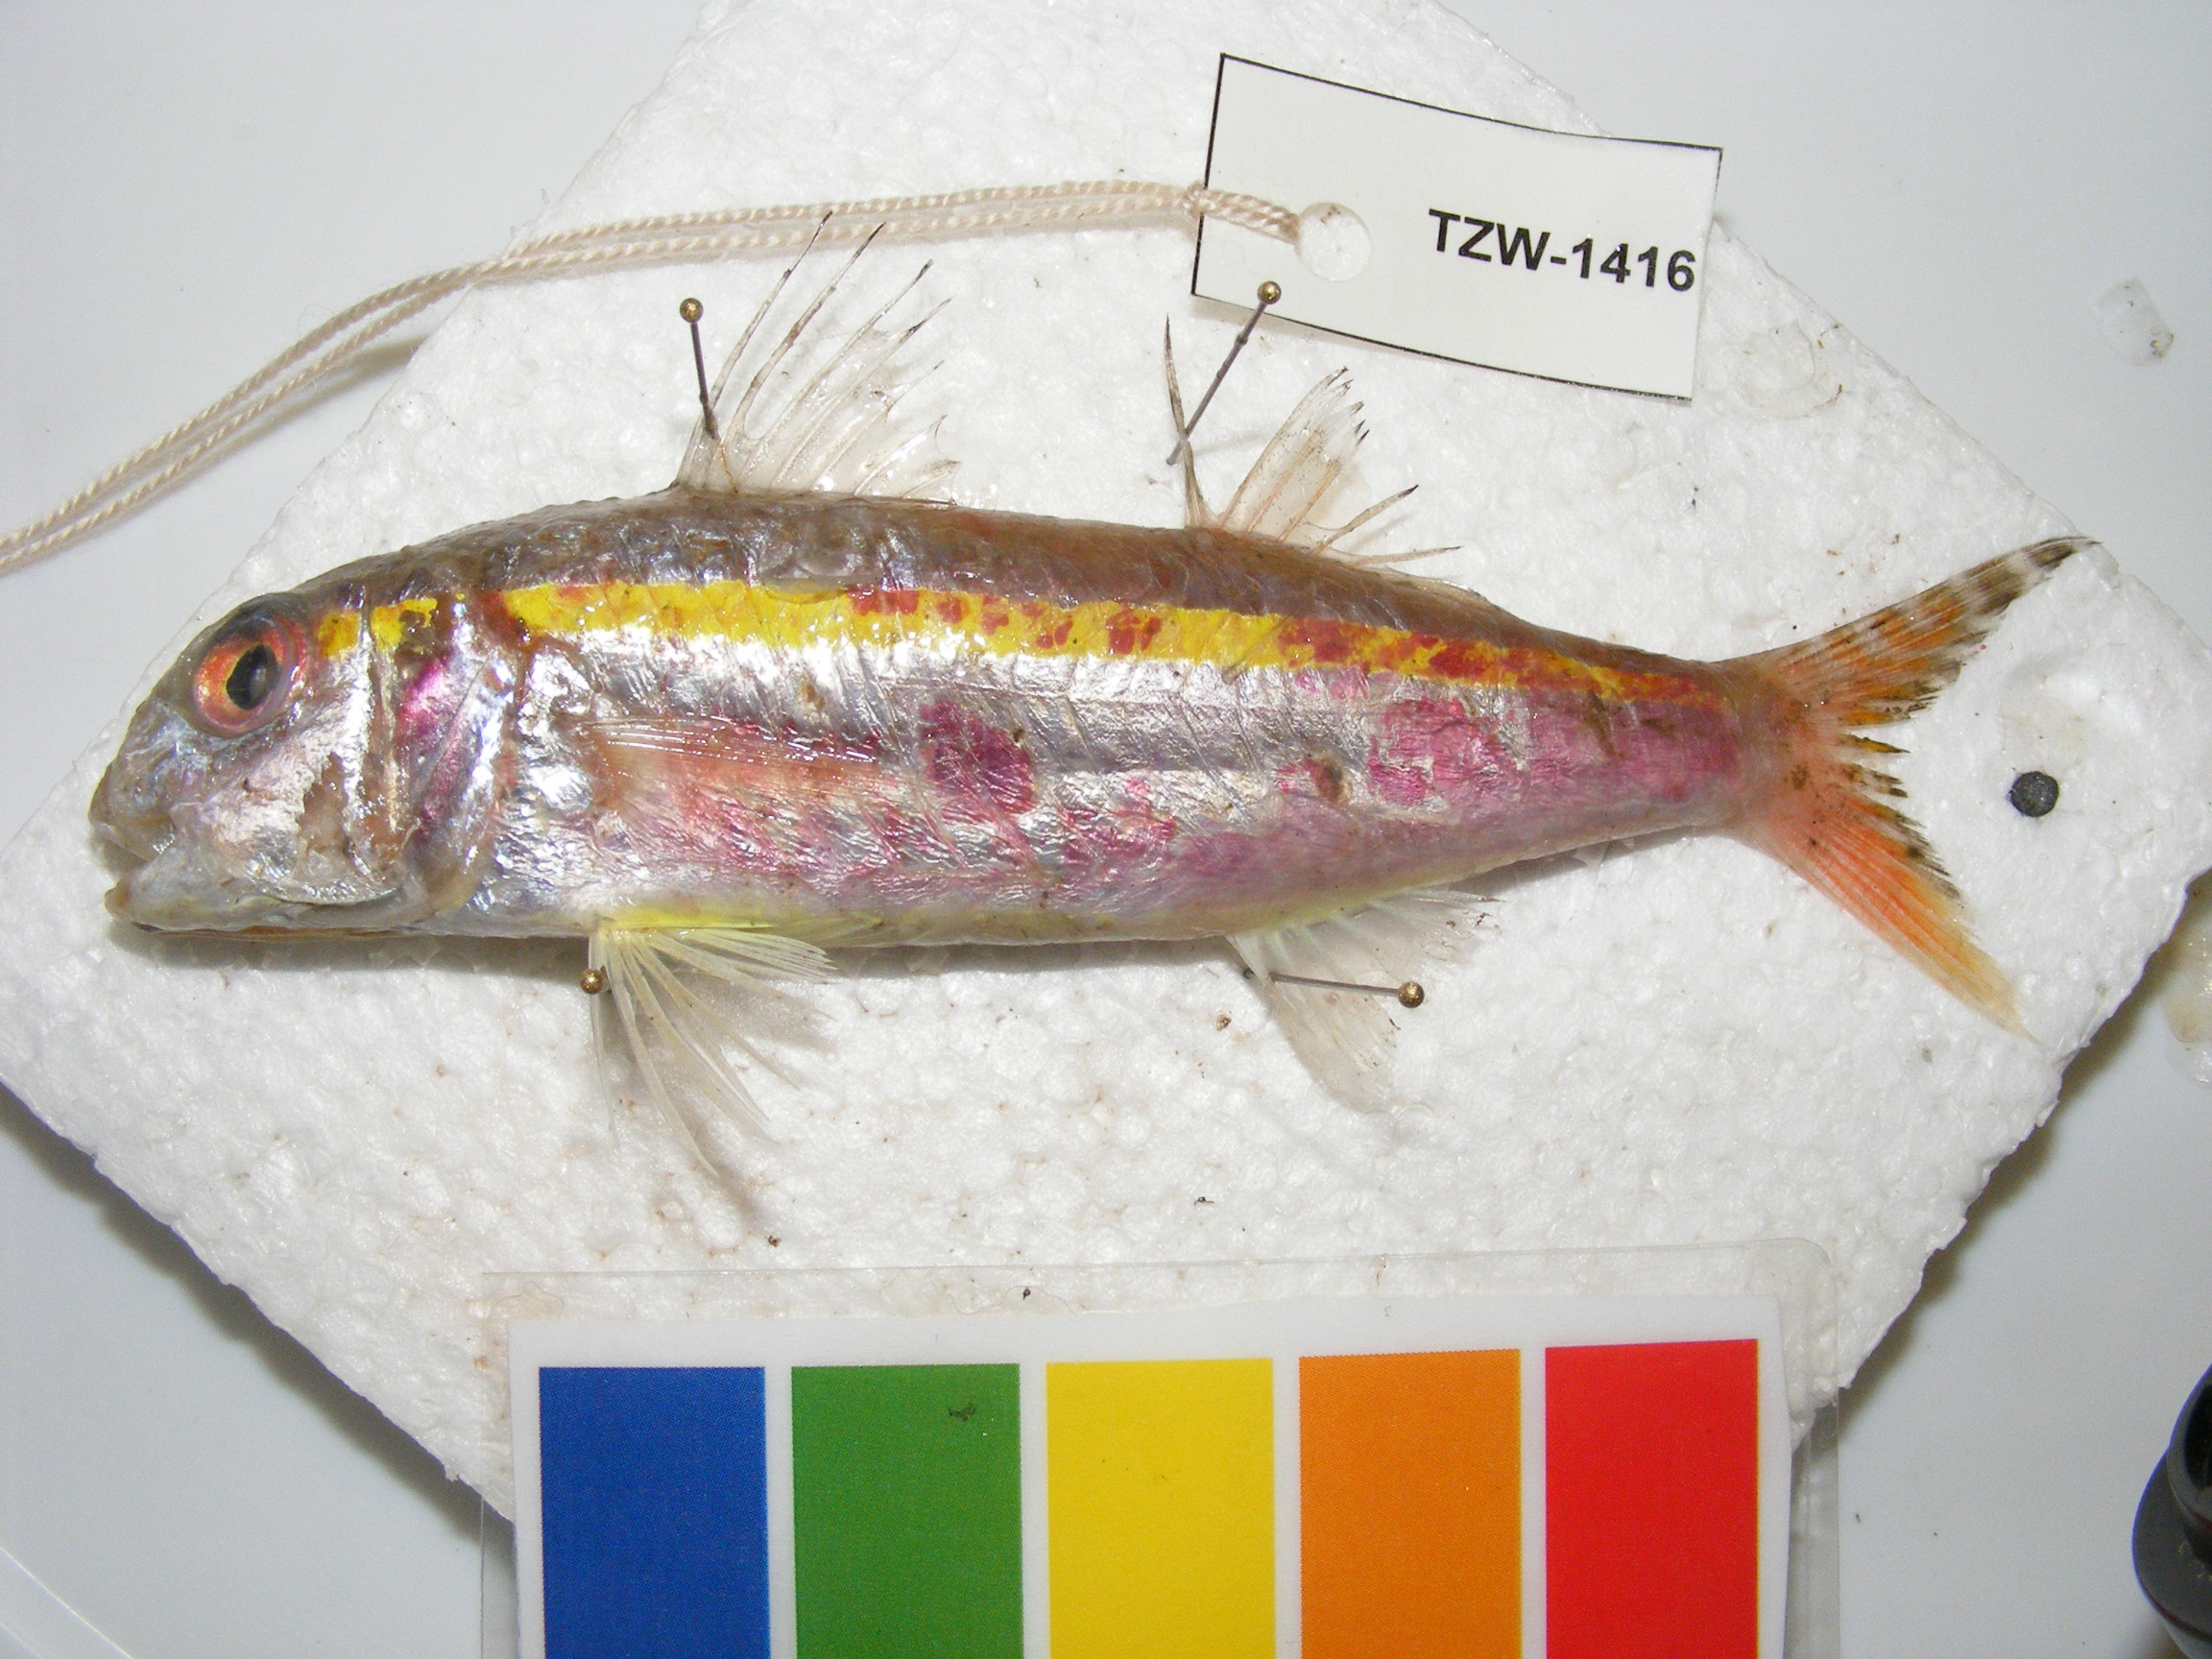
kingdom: Animalia
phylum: Chordata
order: Perciformes
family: Mullidae
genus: Upeneus
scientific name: Upeneus moluccensis
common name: Goldband goatfish
